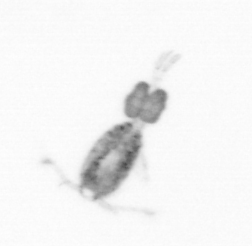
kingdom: Animalia
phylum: Arthropoda
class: Copepoda
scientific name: Copepoda
